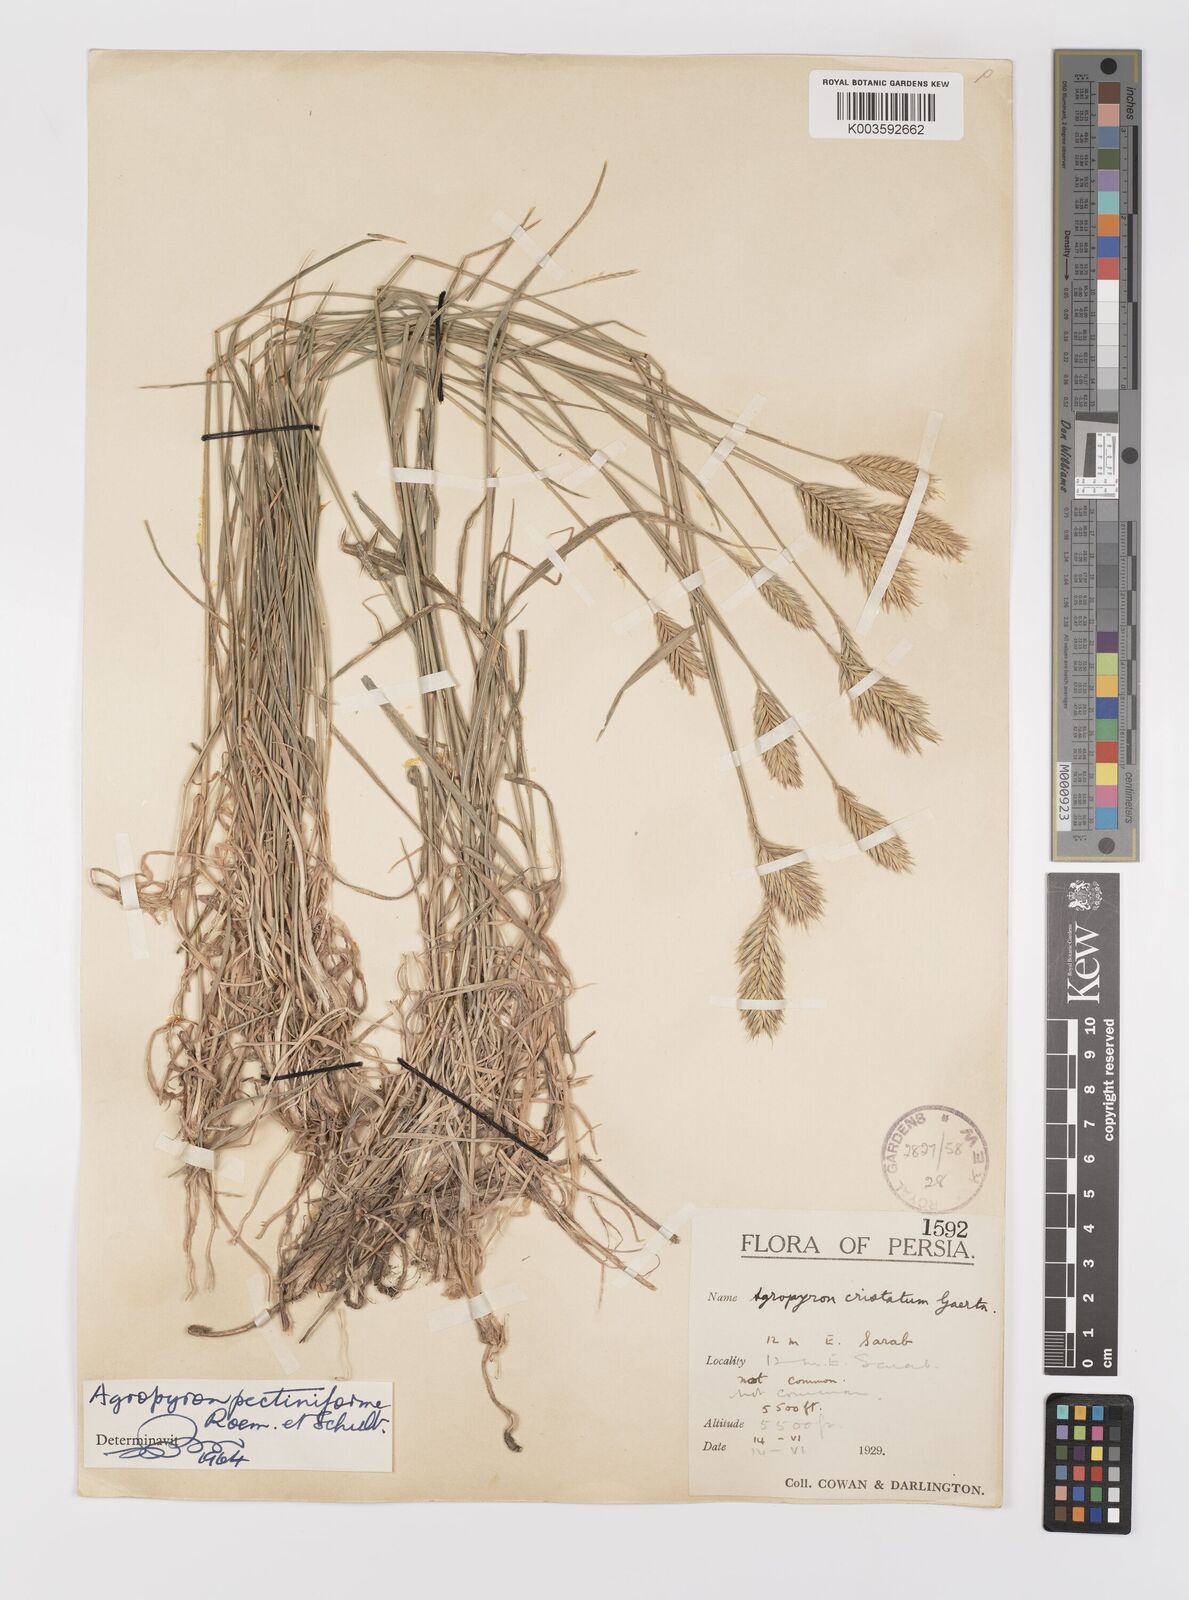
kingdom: Plantae
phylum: Tracheophyta
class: Liliopsida
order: Poales
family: Poaceae
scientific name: Poaceae
